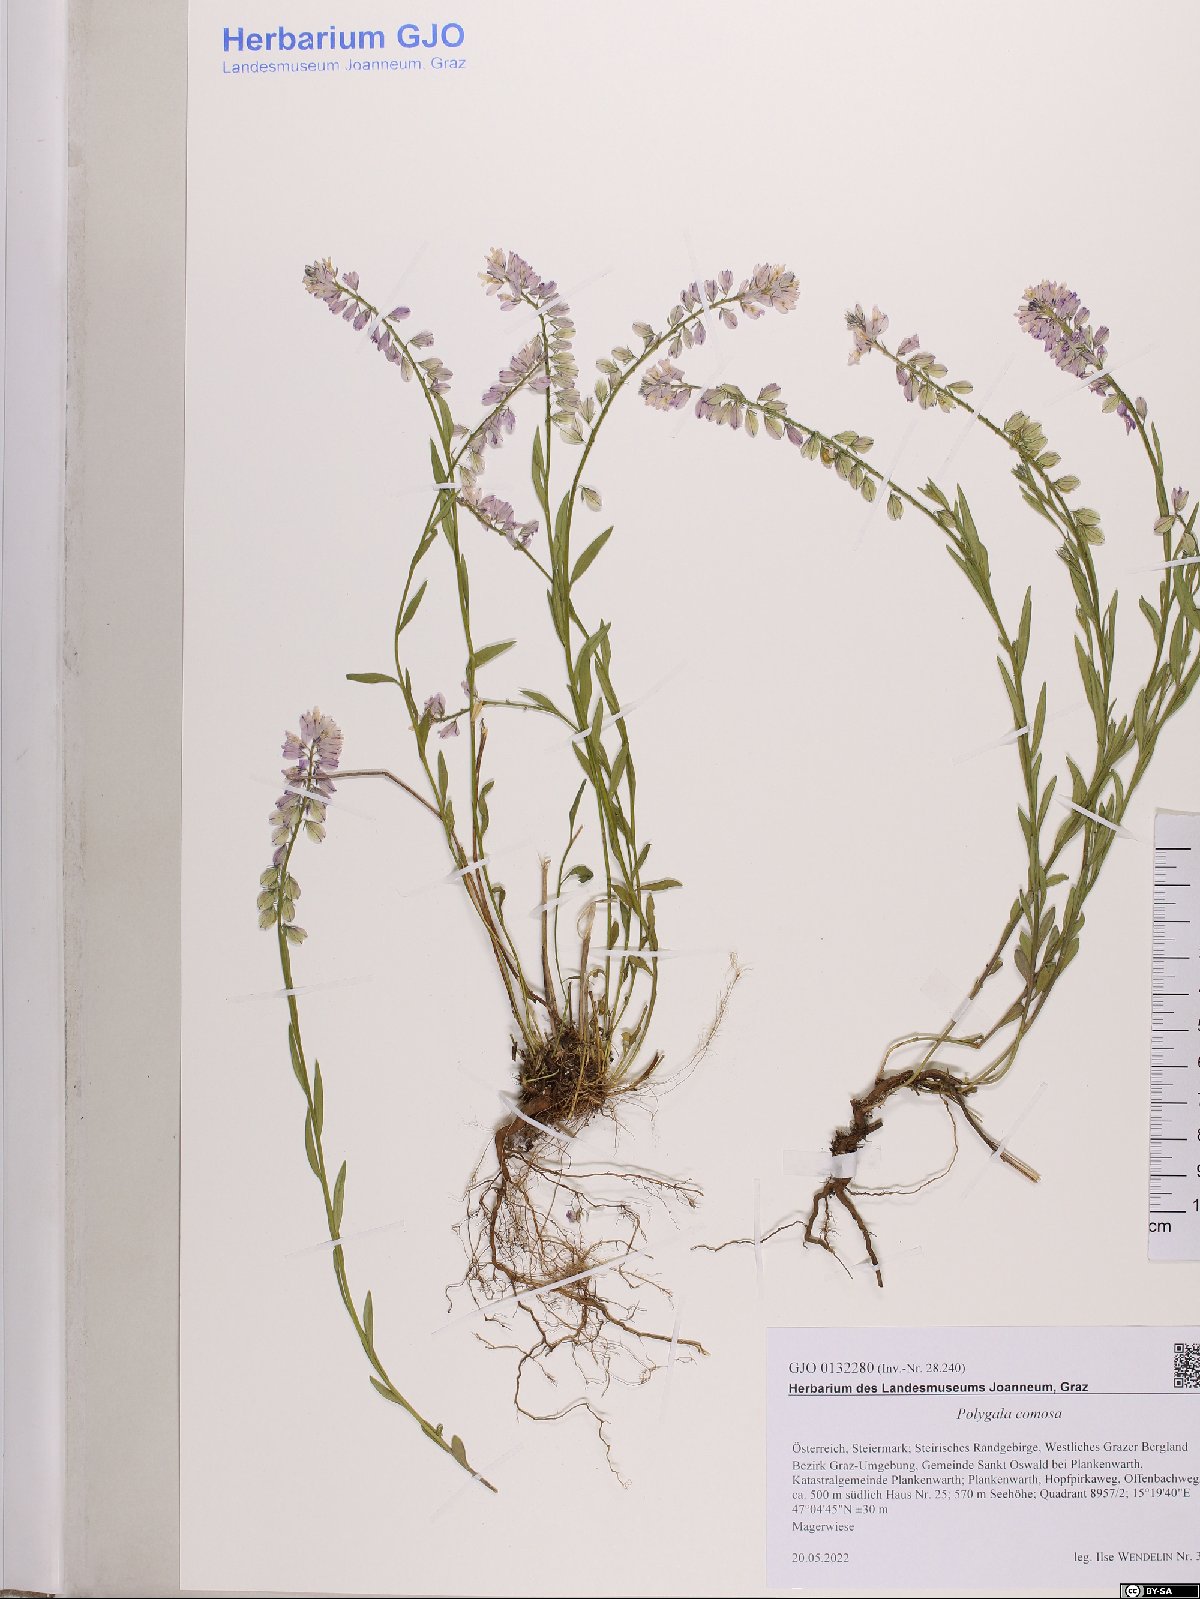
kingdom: Plantae
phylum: Tracheophyta
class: Magnoliopsida
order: Fabales
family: Polygalaceae
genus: Polygala
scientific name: Polygala comosa
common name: Tufted milkwort
